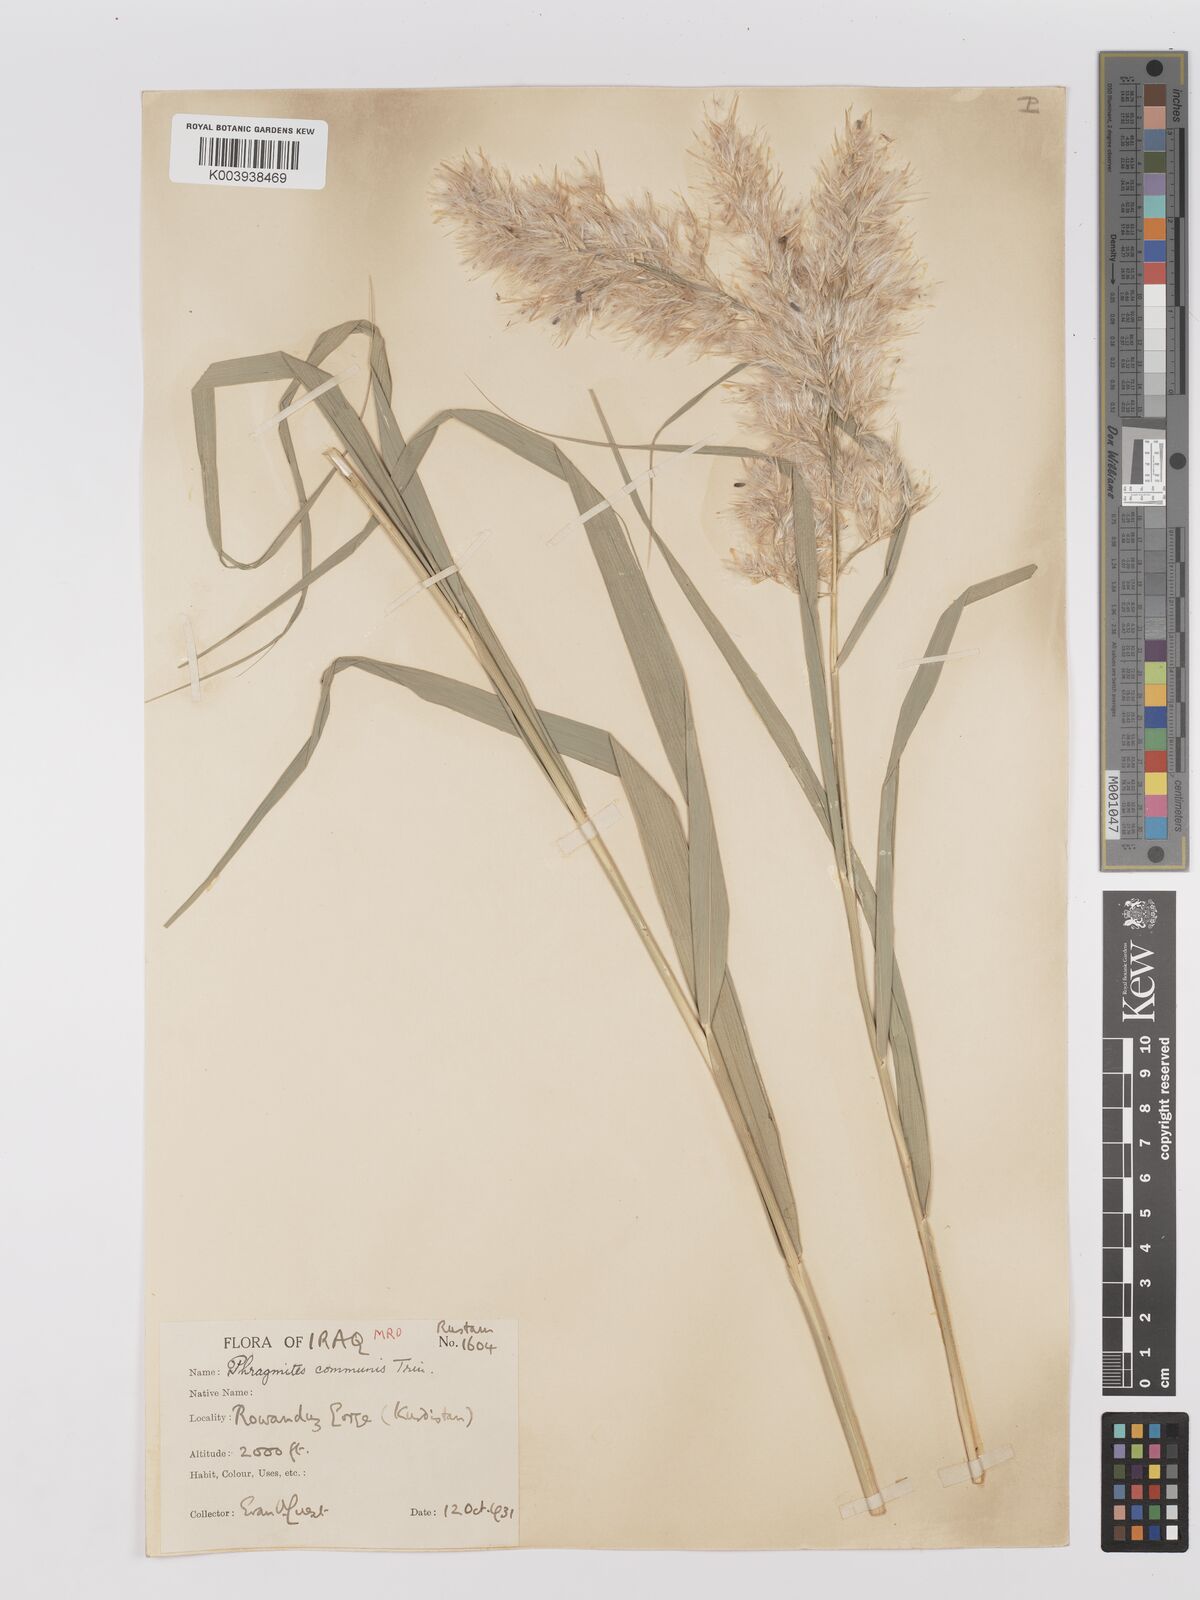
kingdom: Plantae
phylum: Tracheophyta
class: Liliopsida
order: Poales
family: Poaceae
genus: Phragmites
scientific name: Phragmites australis
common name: Common reed
